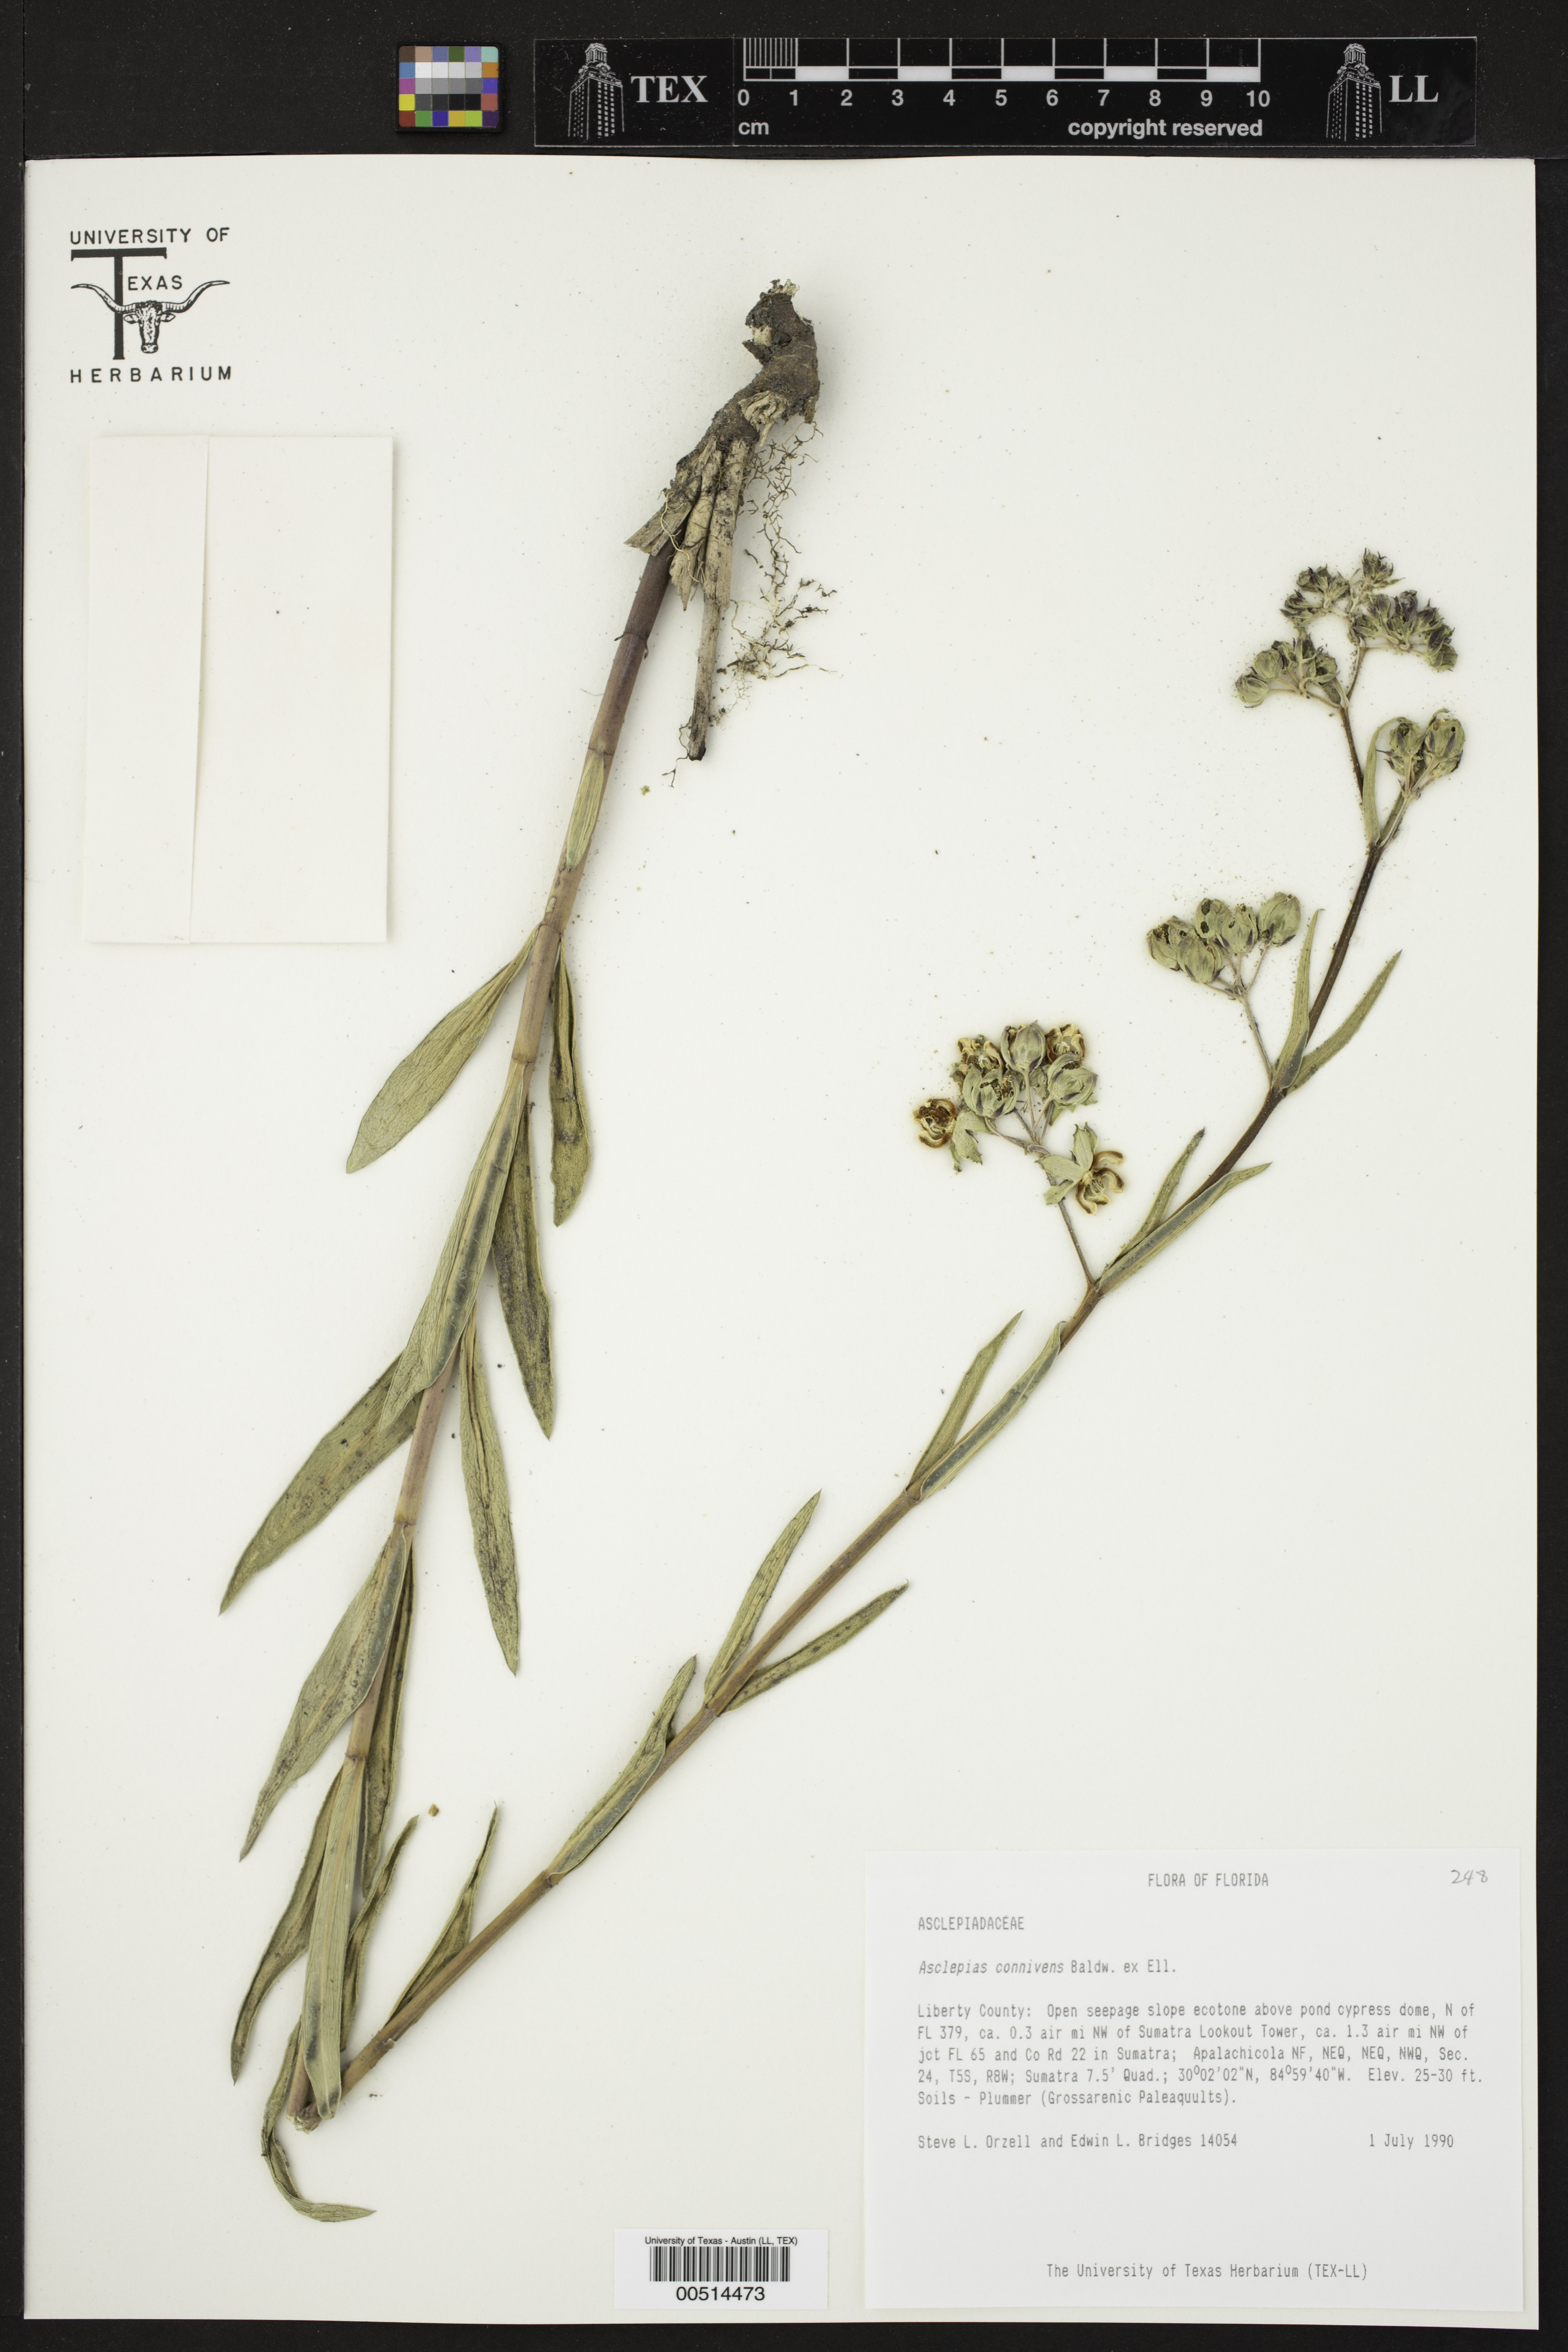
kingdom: Plantae
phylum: Tracheophyta
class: Magnoliopsida
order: Gentianales
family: Apocynaceae
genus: Asclepias
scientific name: Asclepias connivens
